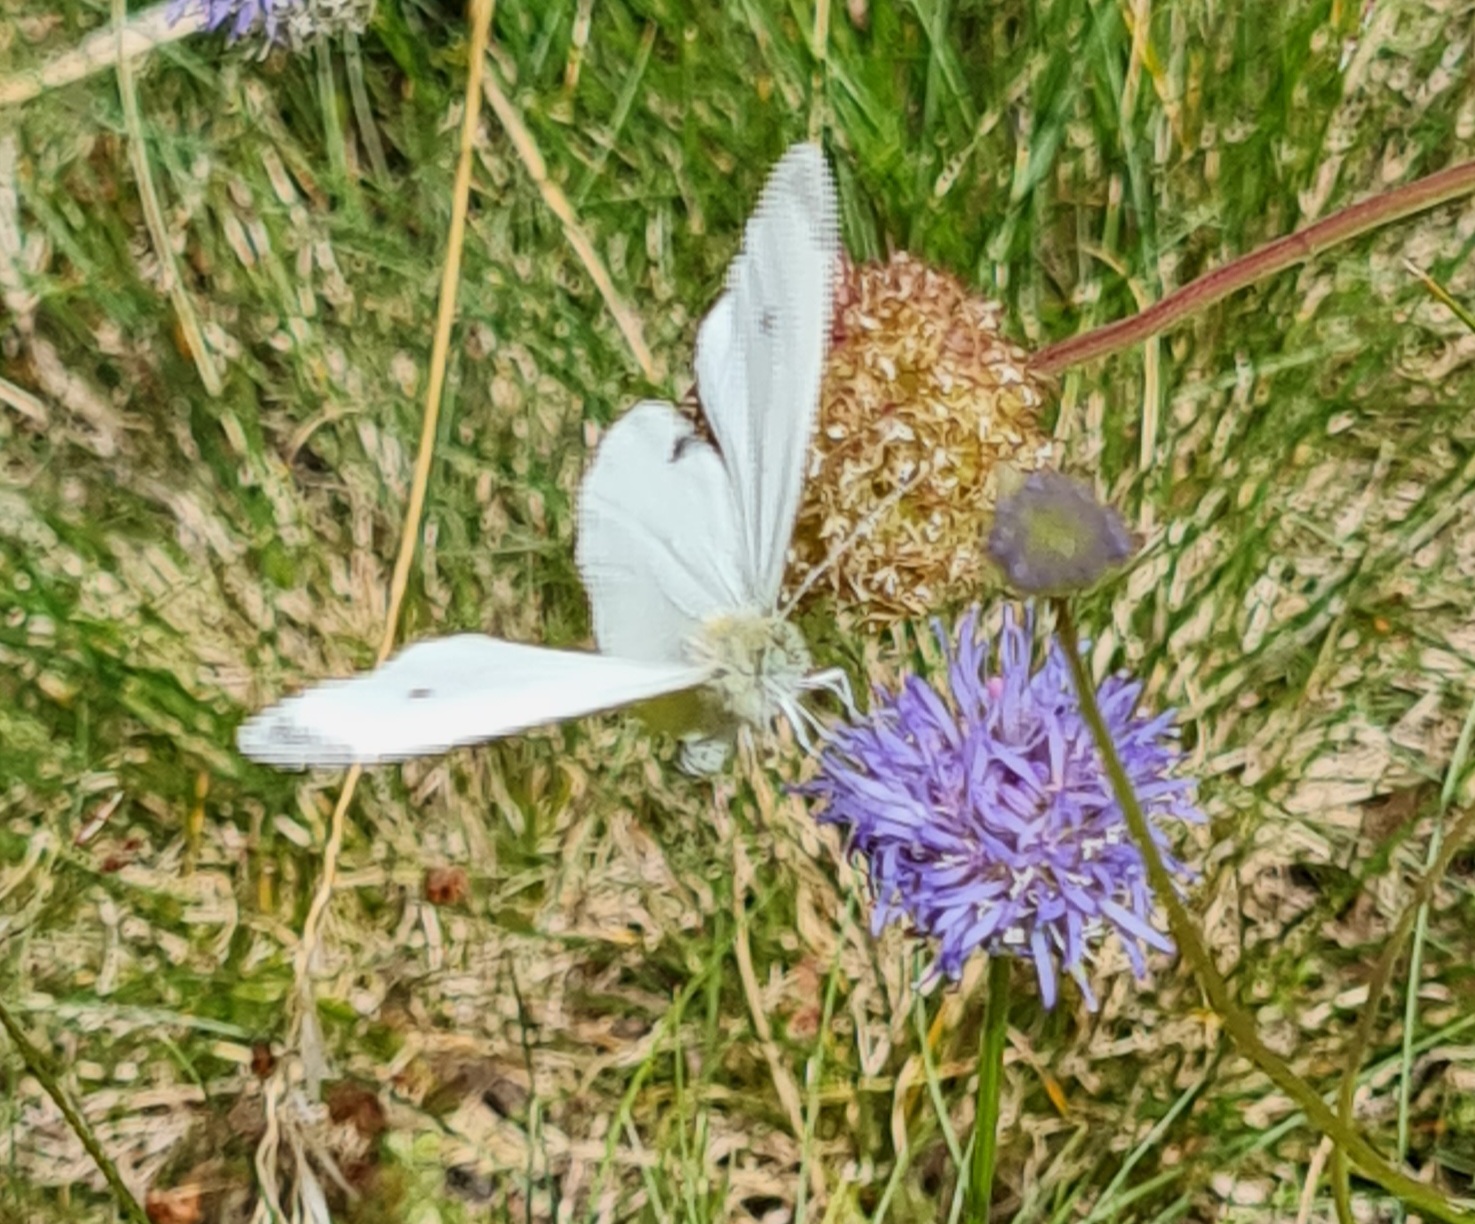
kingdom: Animalia
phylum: Arthropoda
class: Insecta
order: Lepidoptera
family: Pieridae
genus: Pieris
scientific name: Pieris rapae
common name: Lille kålsommerfugl
